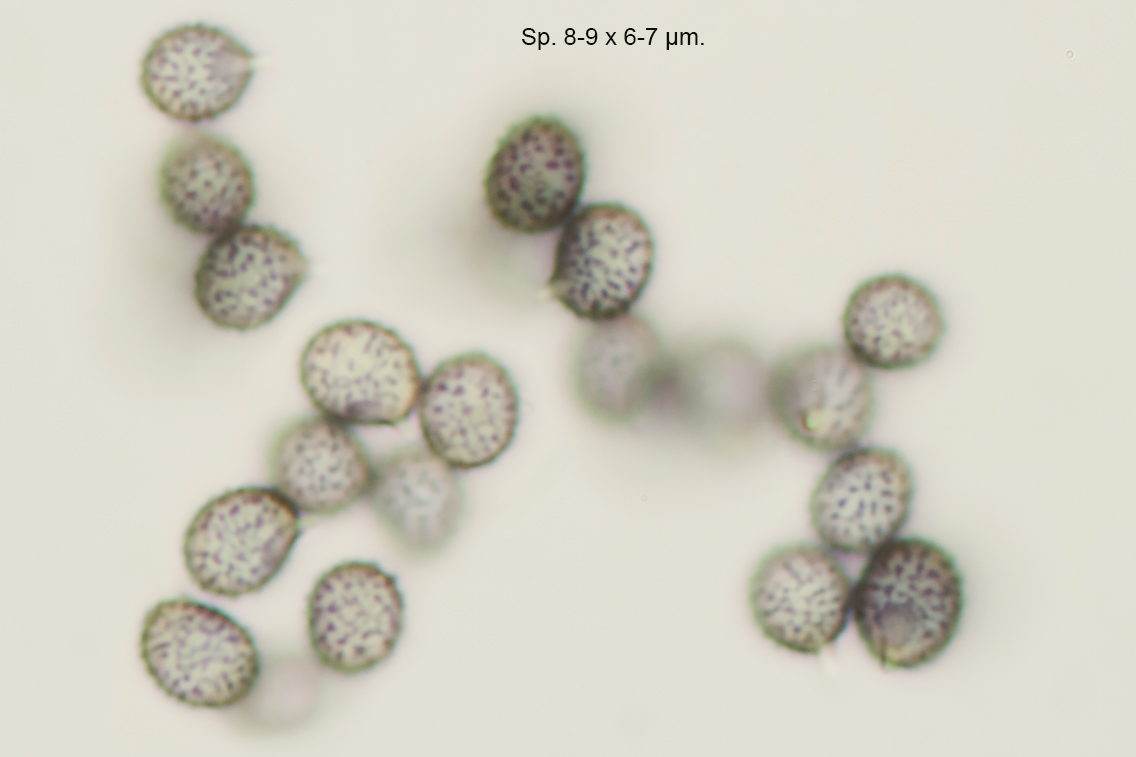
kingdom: Fungi
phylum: Basidiomycota
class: Agaricomycetes
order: Russulales
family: Russulaceae
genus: Russula
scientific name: Russula atropurpurea
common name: purpurbroget skørhat
